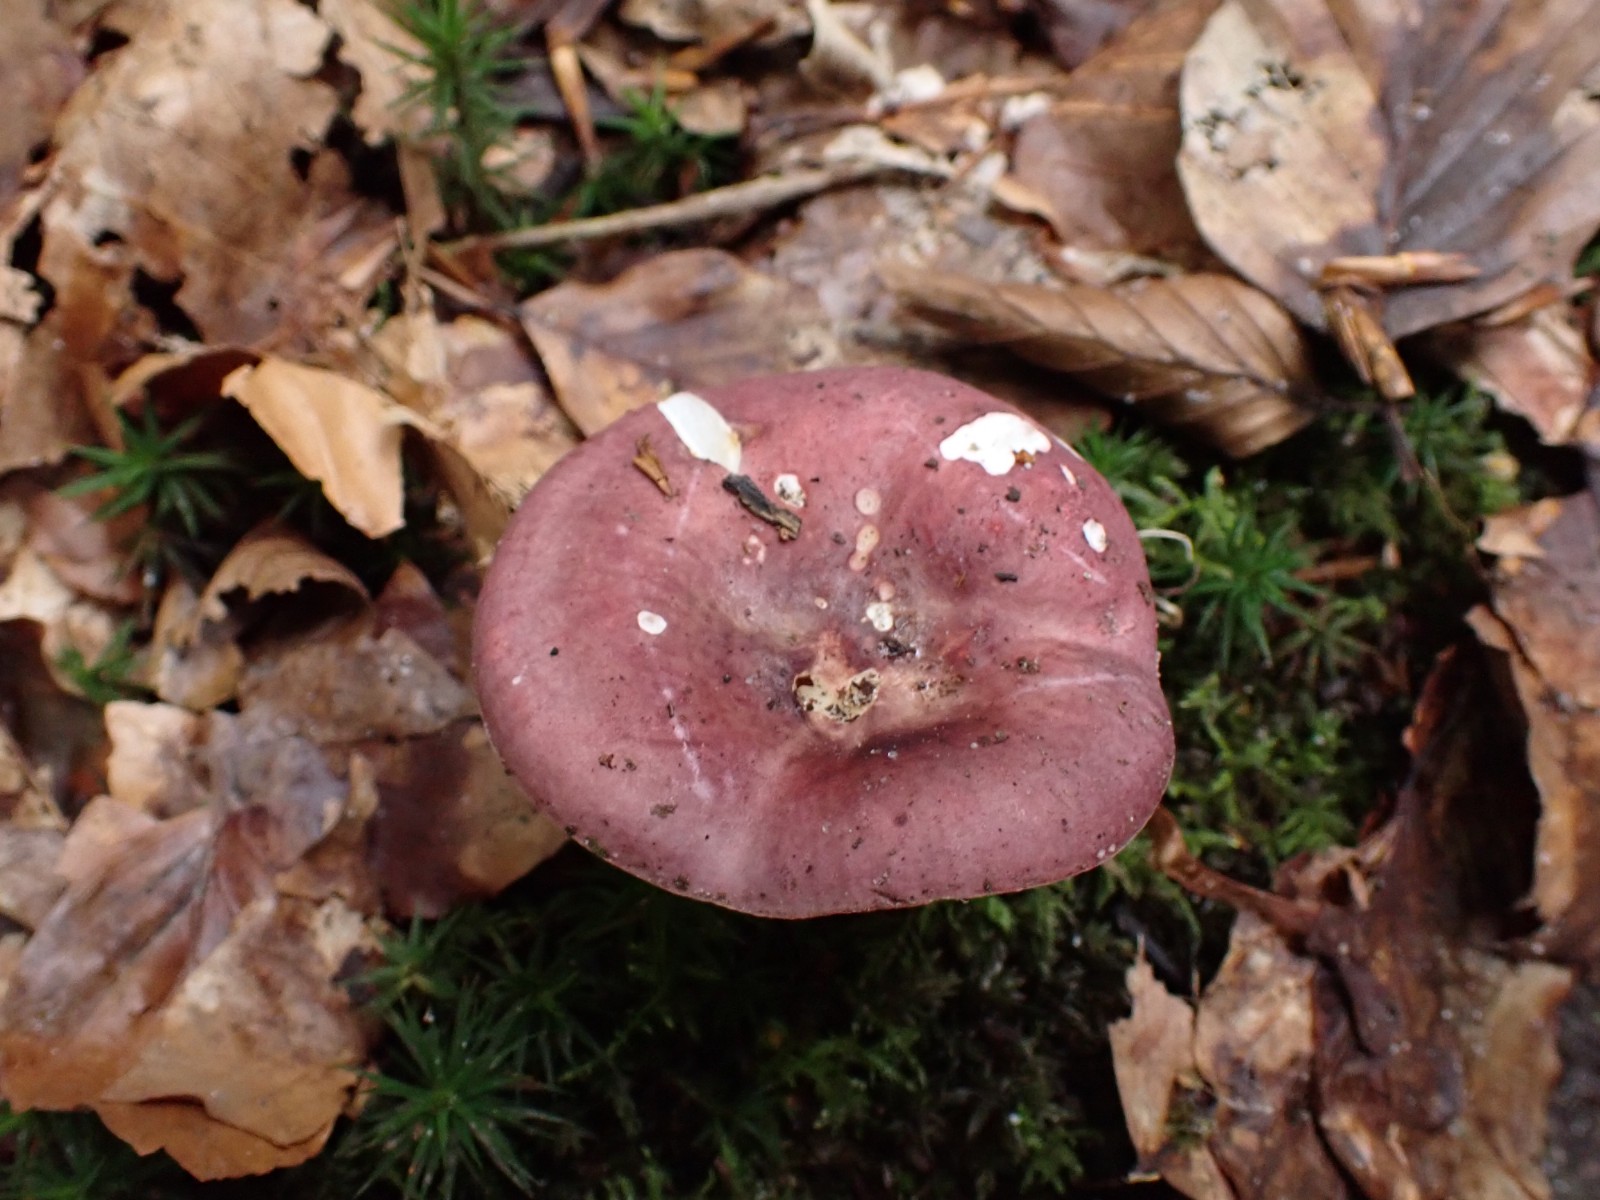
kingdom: Fungi
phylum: Basidiomycota
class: Agaricomycetes
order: Russulales
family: Russulaceae
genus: Russula
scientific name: Russula brunneoviolacea
